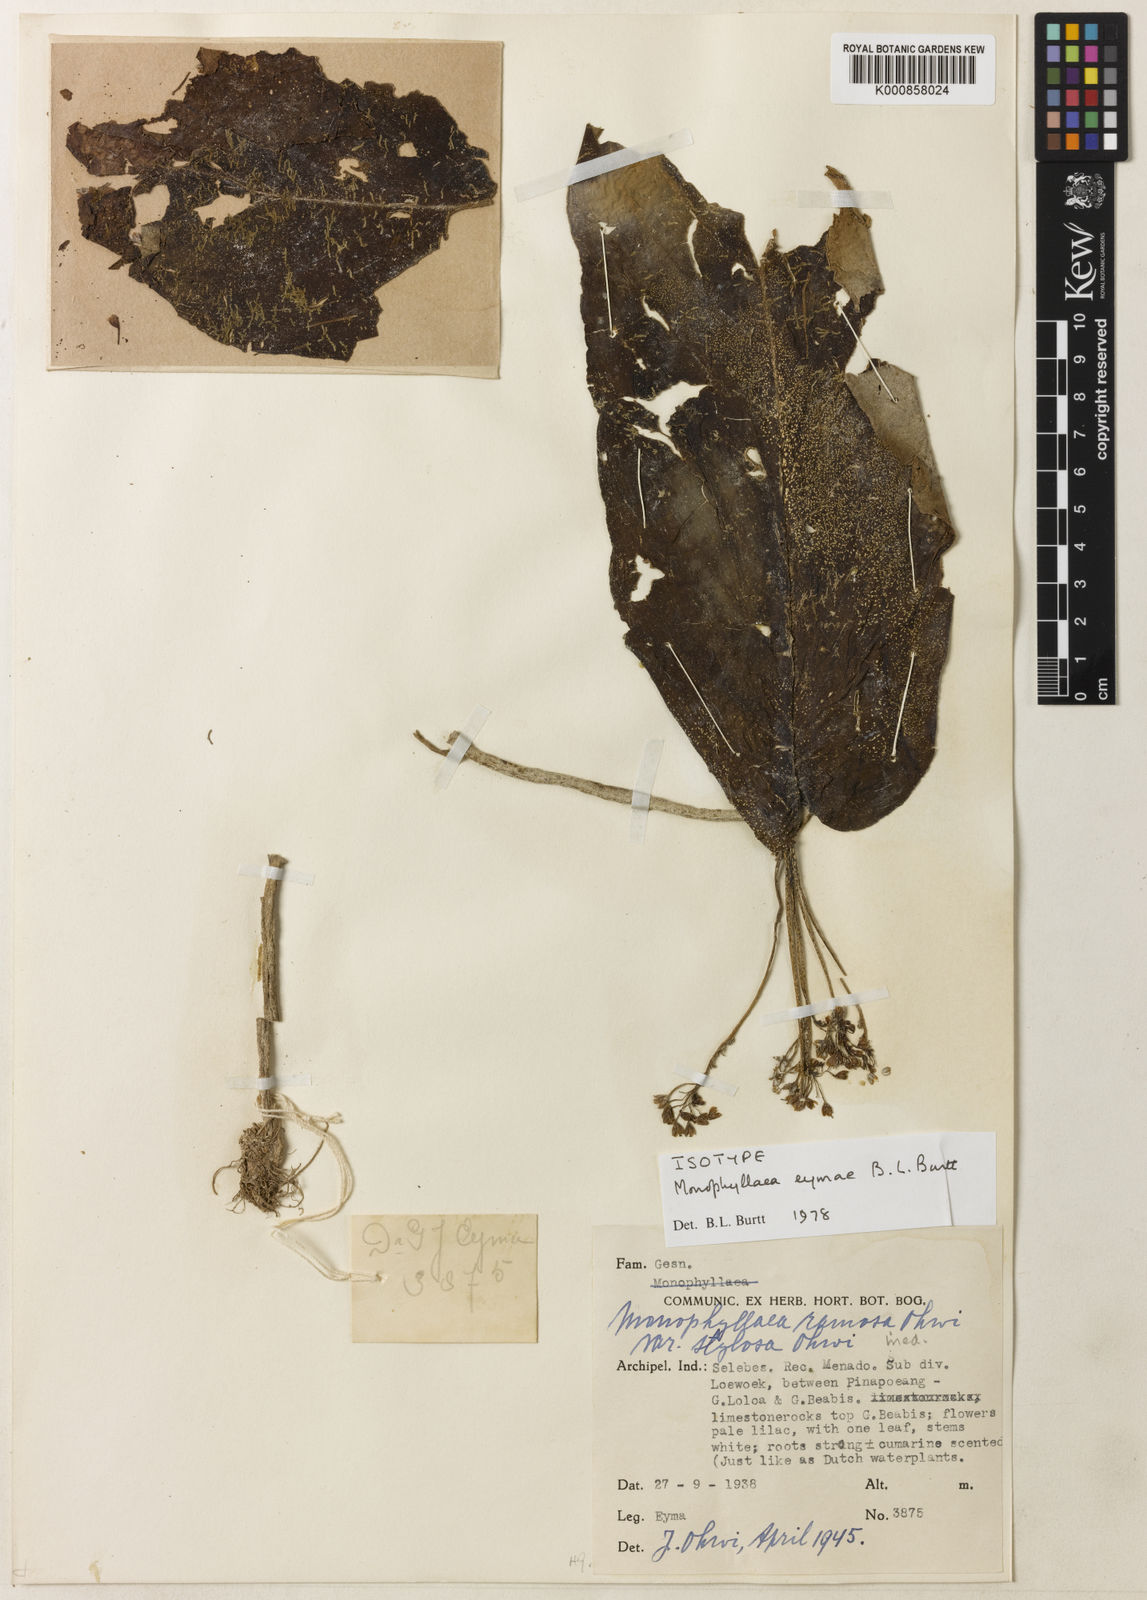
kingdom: Plantae
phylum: Tracheophyta
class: Magnoliopsida
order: Lamiales
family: Gesneriaceae
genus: Monophyllaea
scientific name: Monophyllaea eymae
